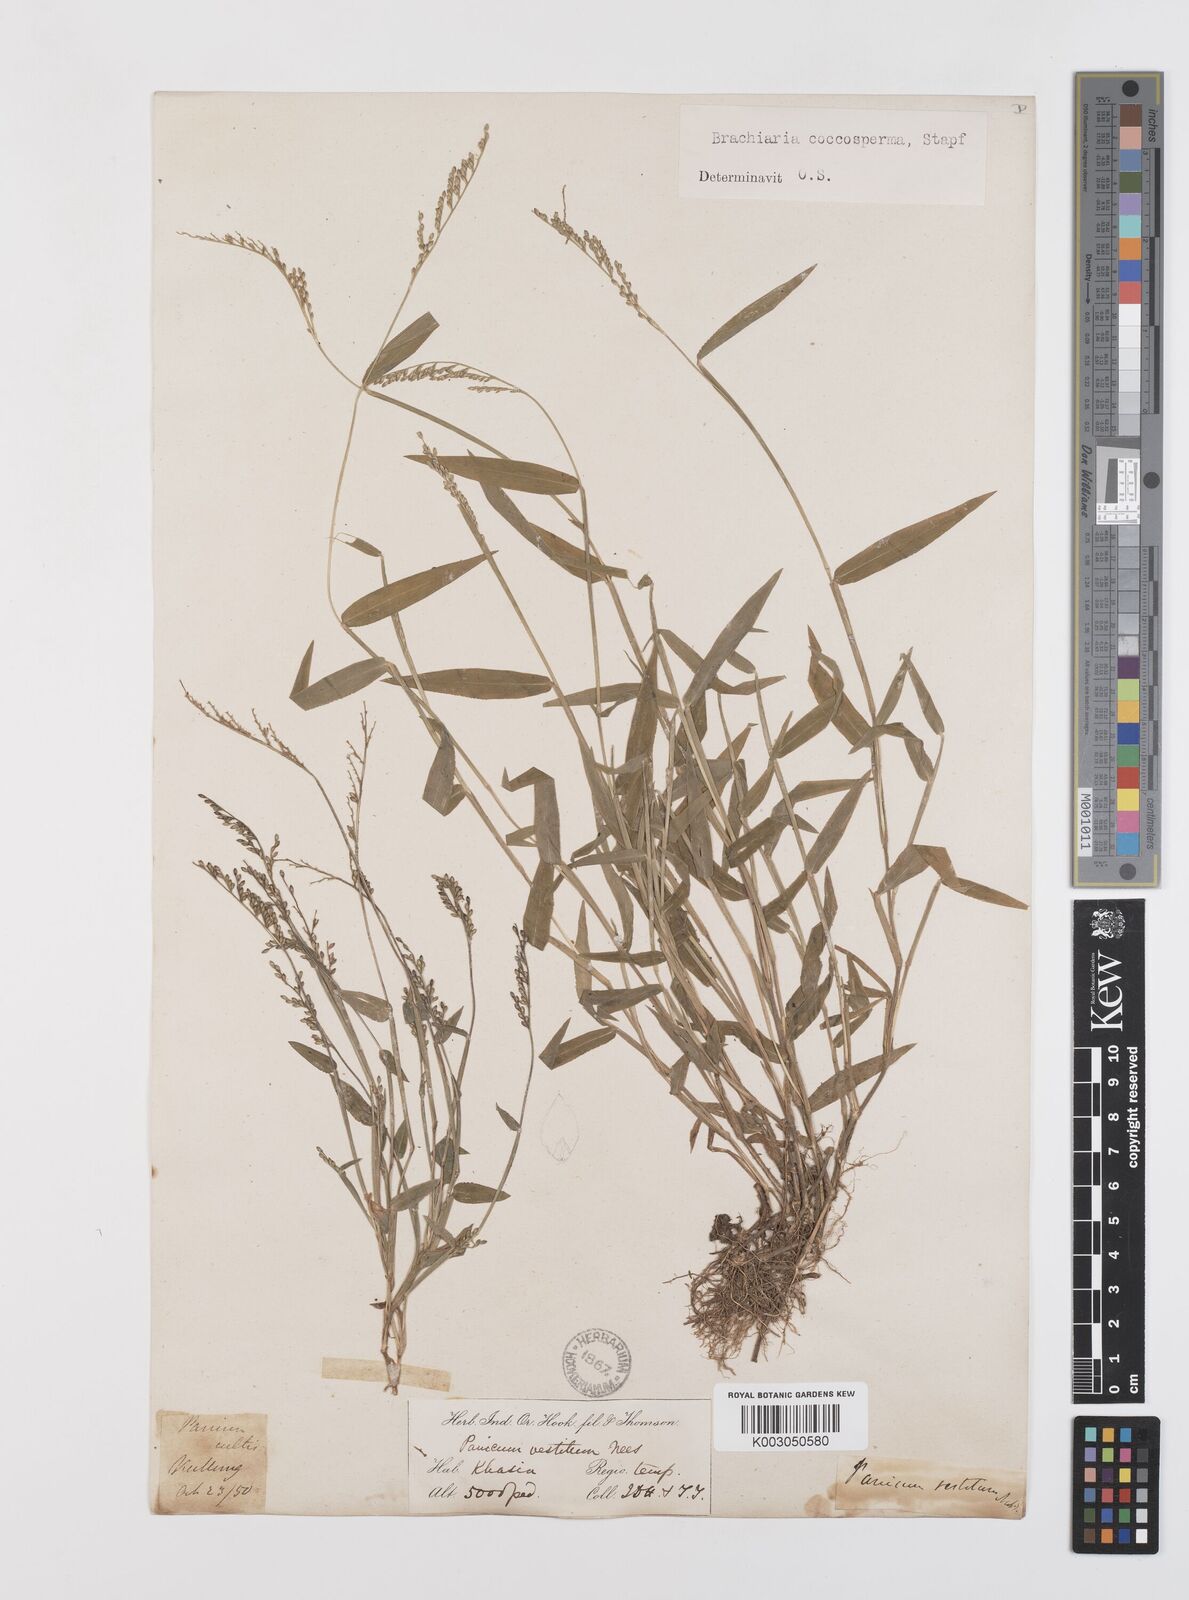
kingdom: Plantae
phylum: Tracheophyta
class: Liliopsida
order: Poales
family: Poaceae
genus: Urochloa
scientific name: Urochloa villosa
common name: Hairy signalgrass
